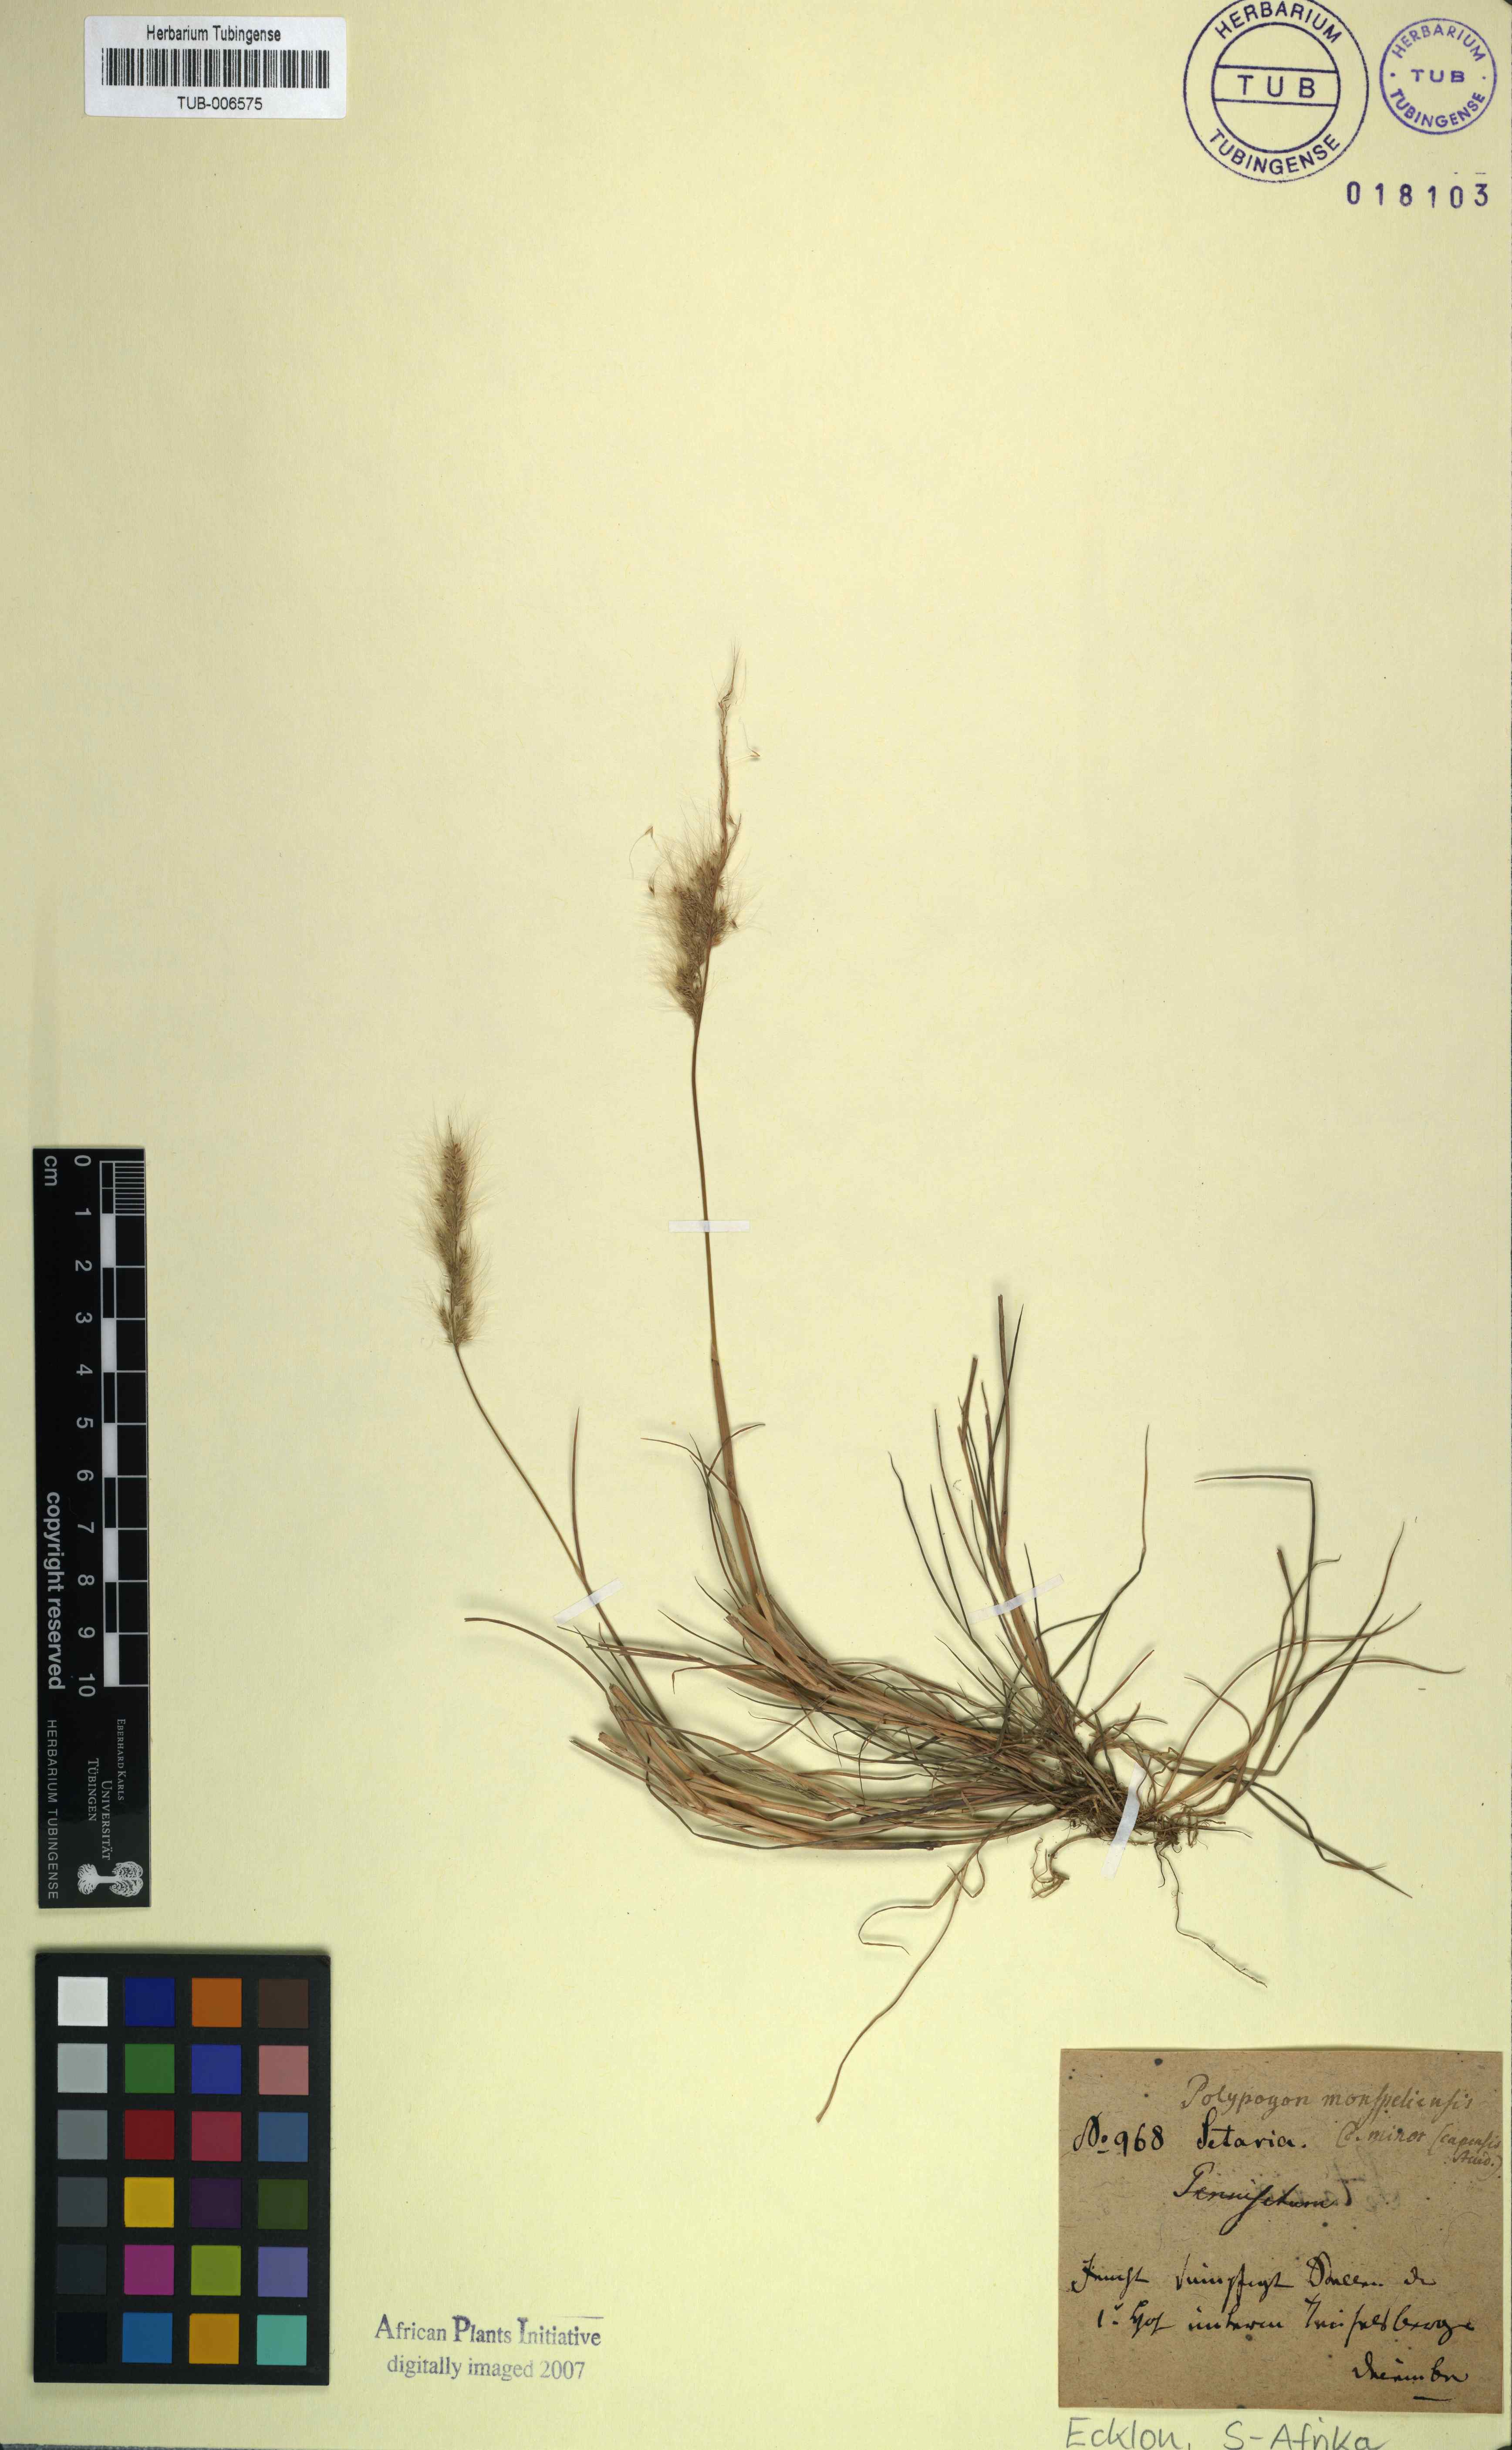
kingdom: Plantae
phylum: Tracheophyta
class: Liliopsida
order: Poales
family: Poaceae
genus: Polypogon
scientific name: Polypogon monspeliensis
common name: Annual rabbitsfoot grass
